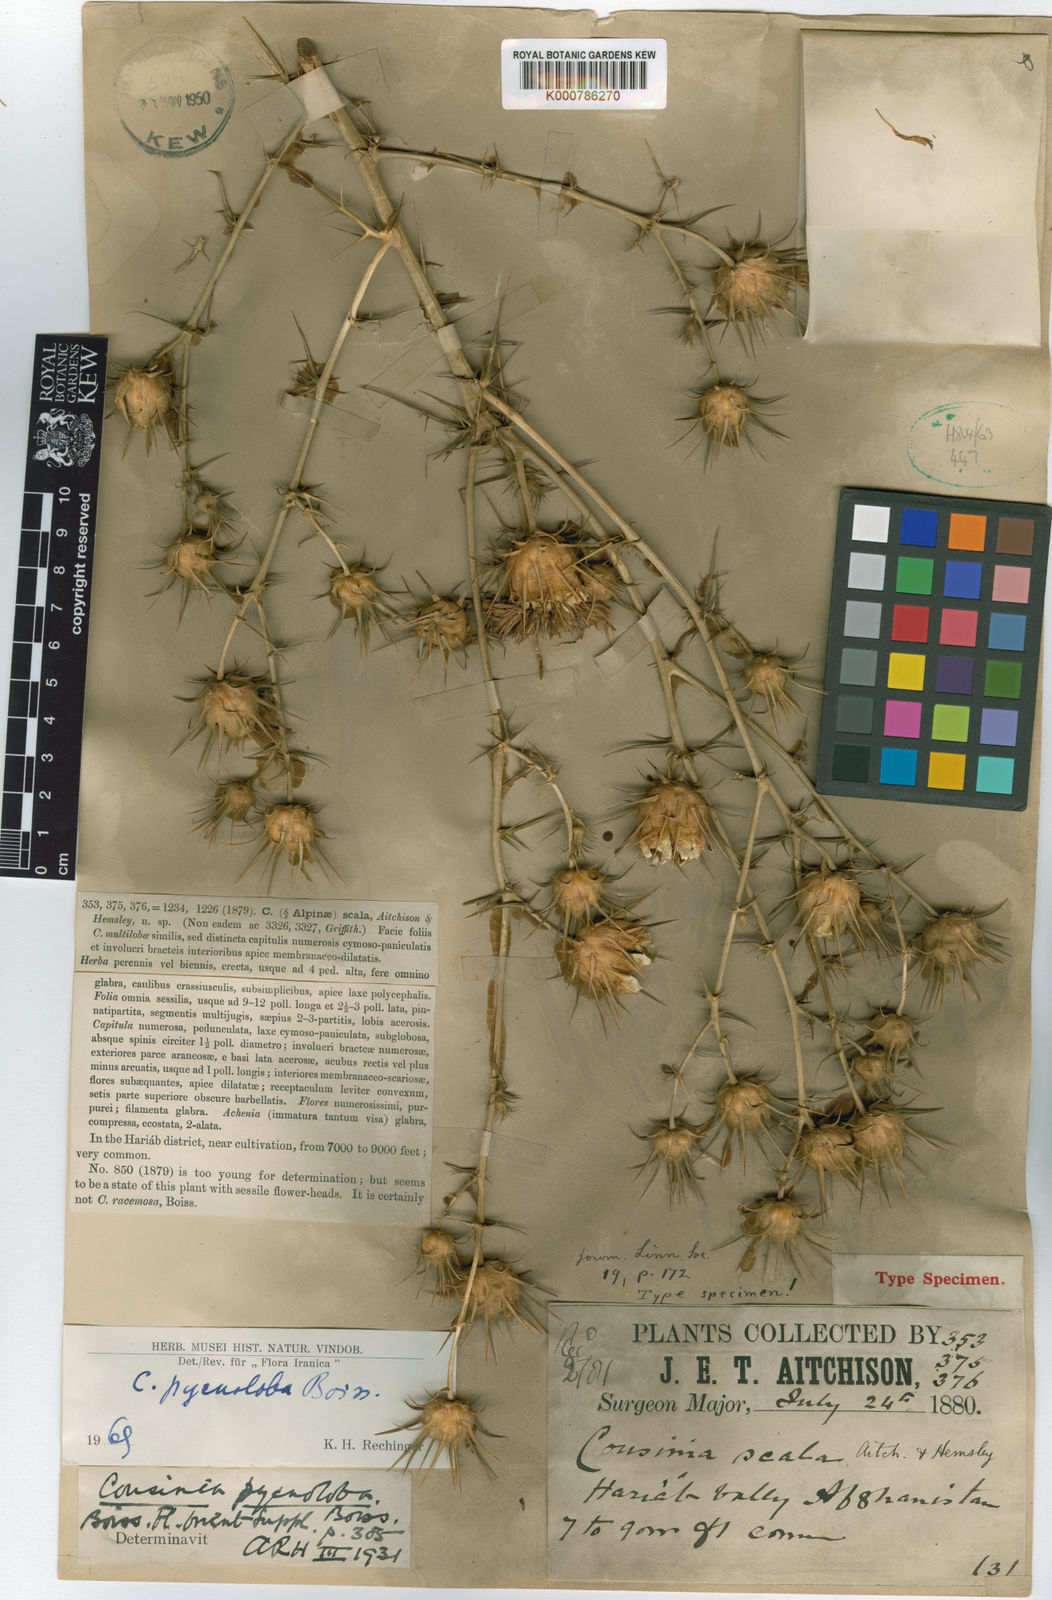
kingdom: Plantae
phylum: Tracheophyta
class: Magnoliopsida
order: Asterales
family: Asteraceae
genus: Cousinia
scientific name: Cousinia pycnoloba
